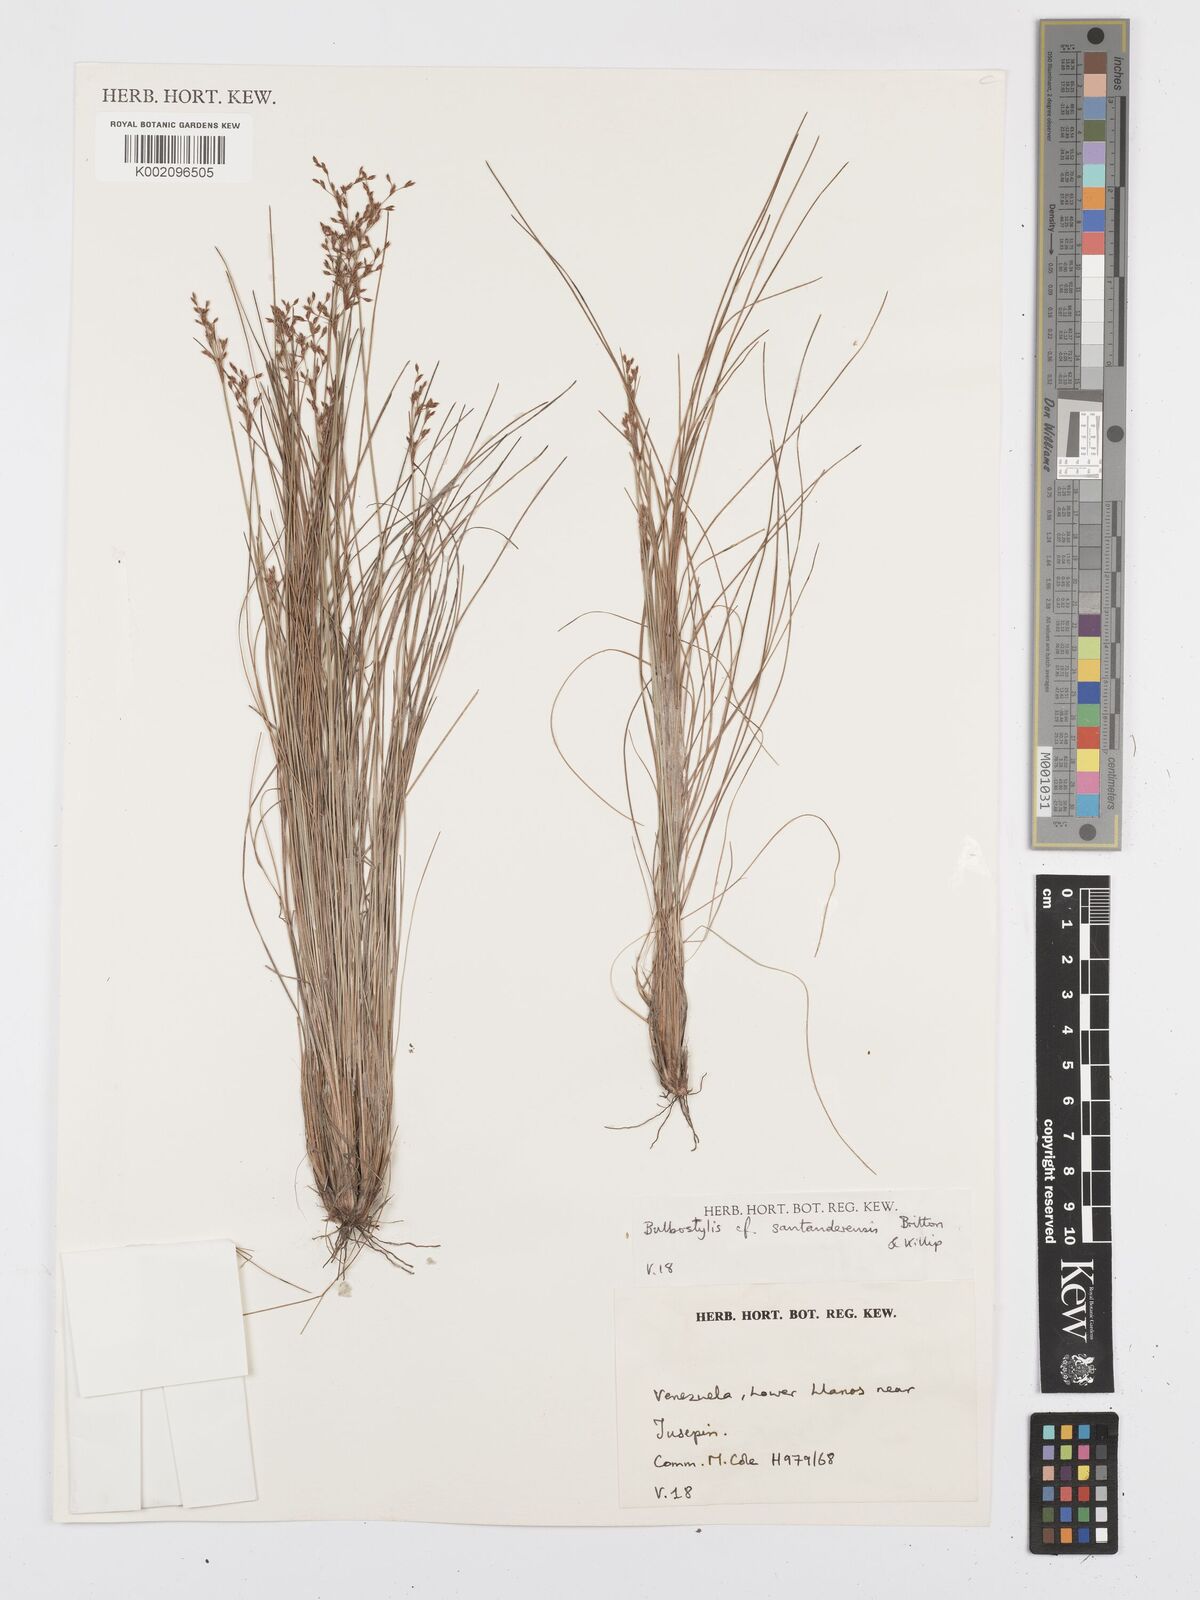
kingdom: Plantae
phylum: Tracheophyta
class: Liliopsida
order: Poales
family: Cyperaceae
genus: Bulbostylis
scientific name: Bulbostylis
